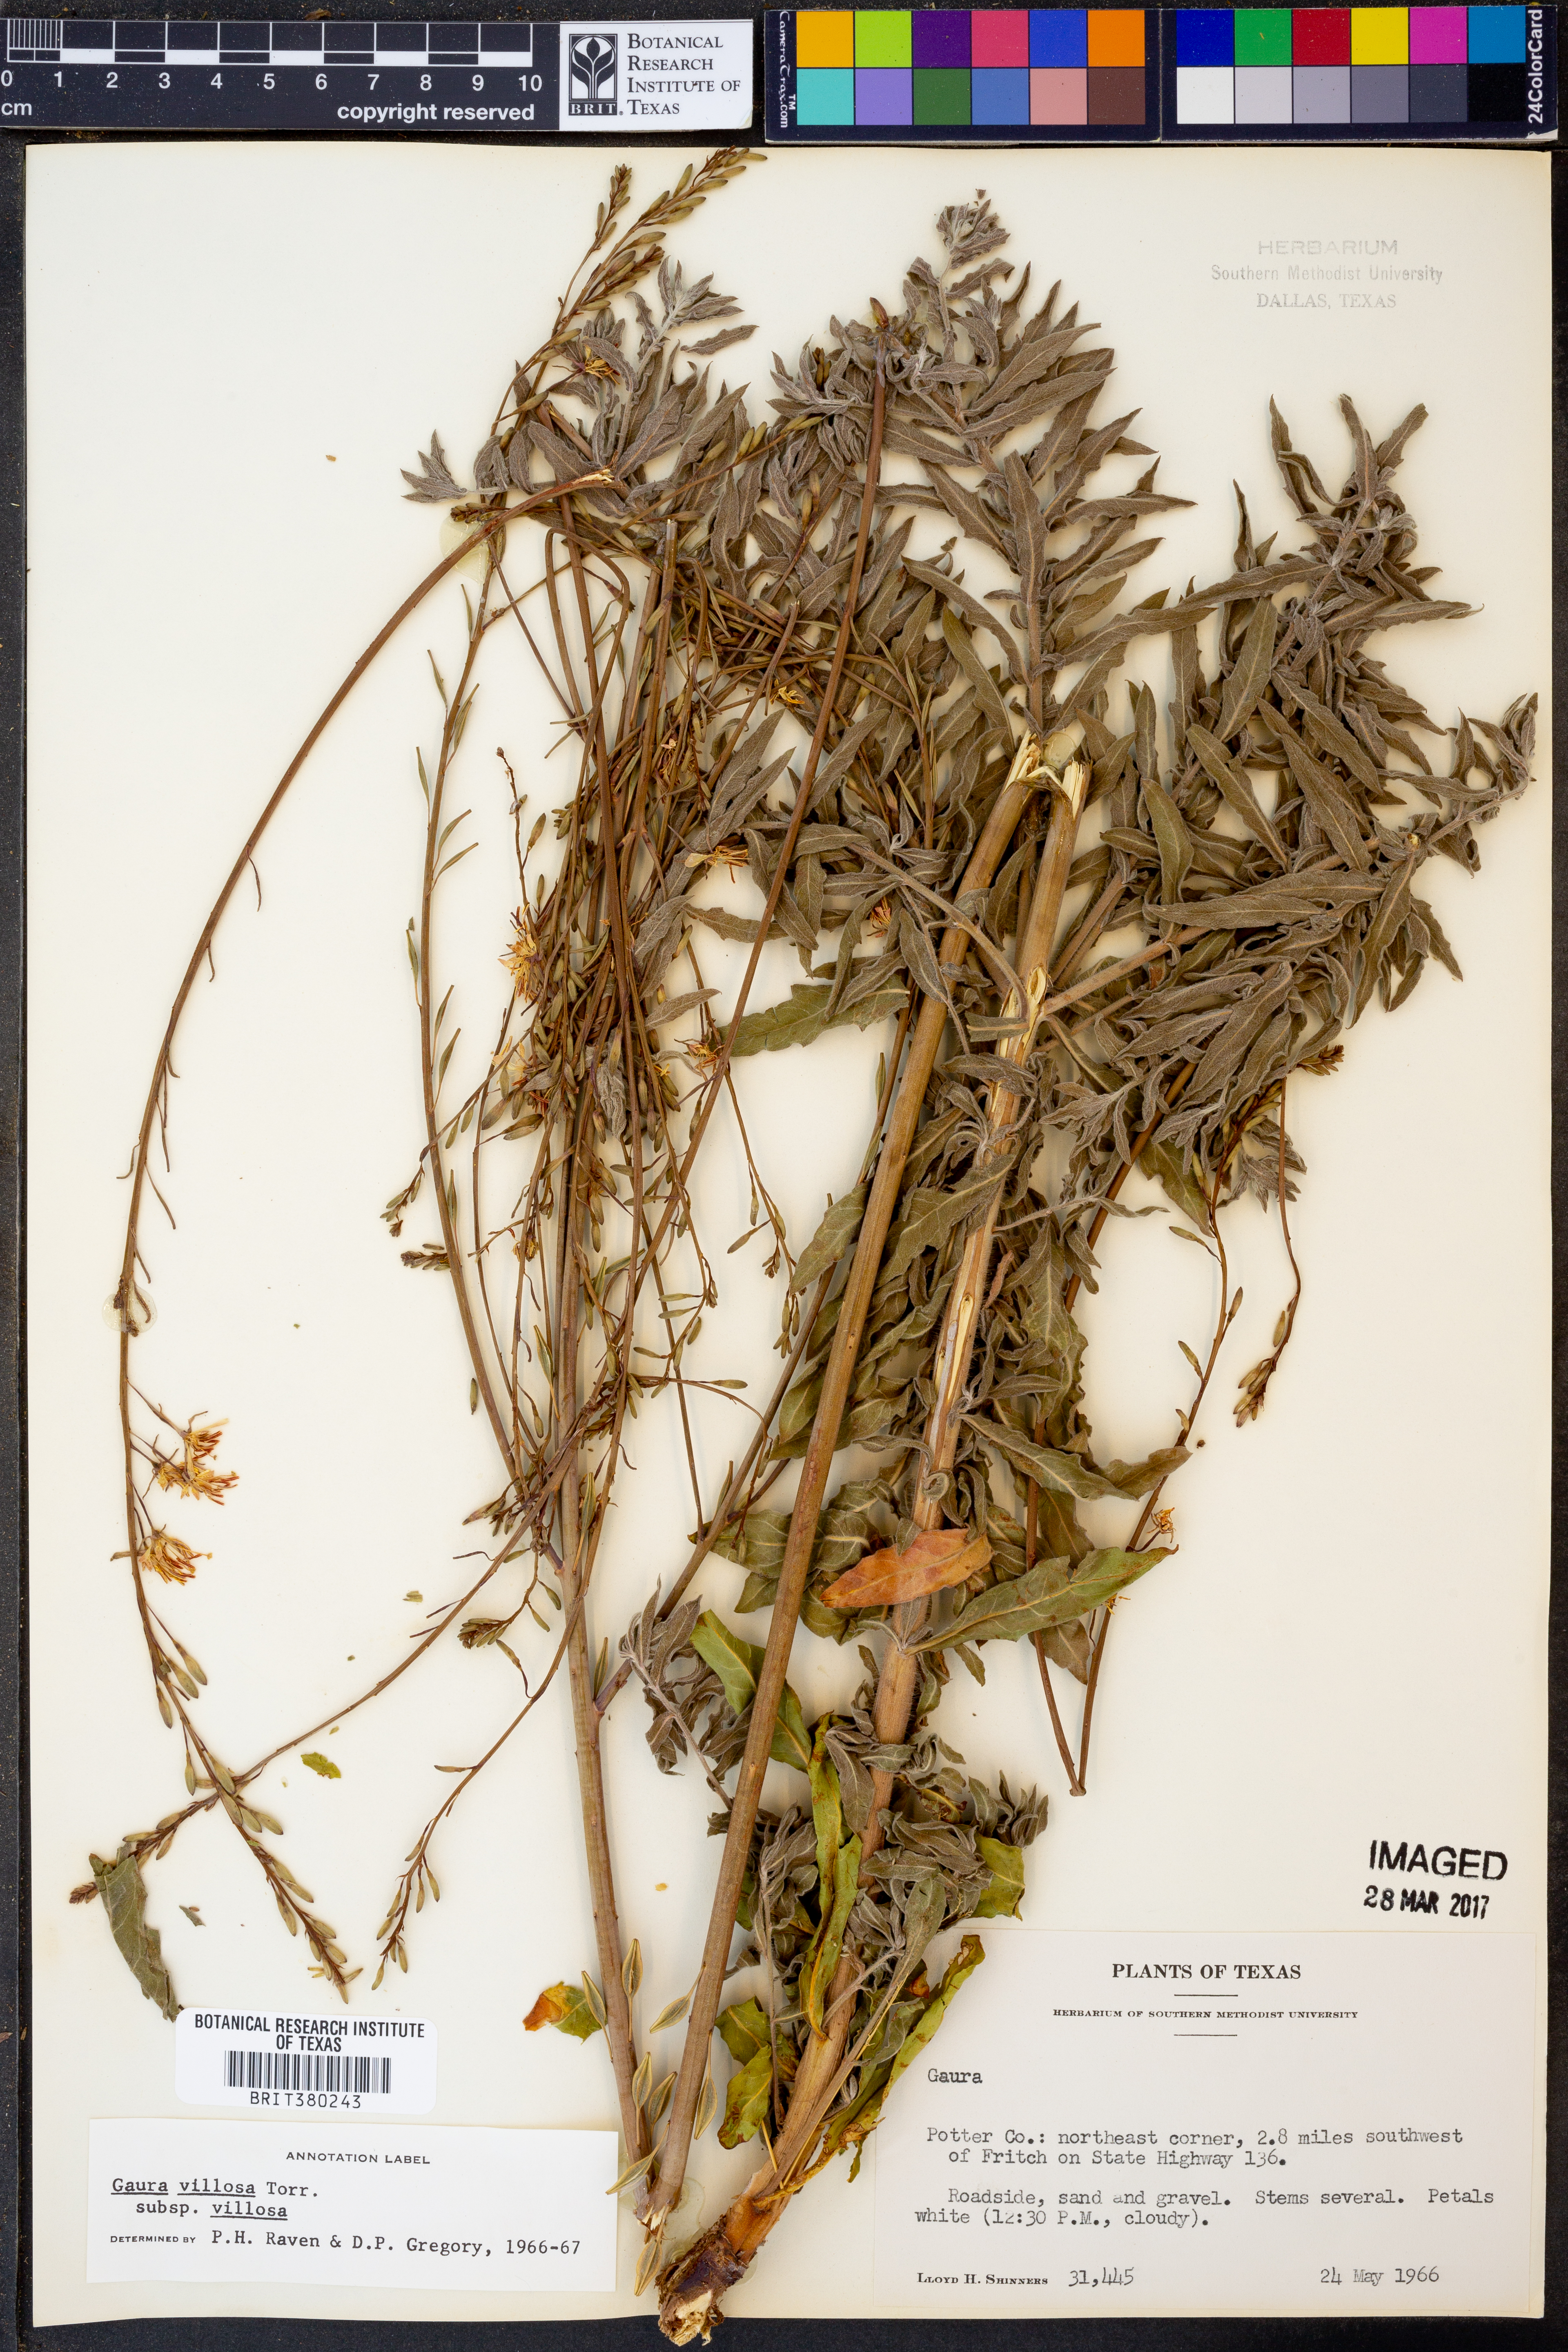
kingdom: Plantae
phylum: Tracheophyta
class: Magnoliopsida
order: Myrtales
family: Onagraceae
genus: Oenothera
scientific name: Oenothera cinerea
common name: Woolly beeblossom
